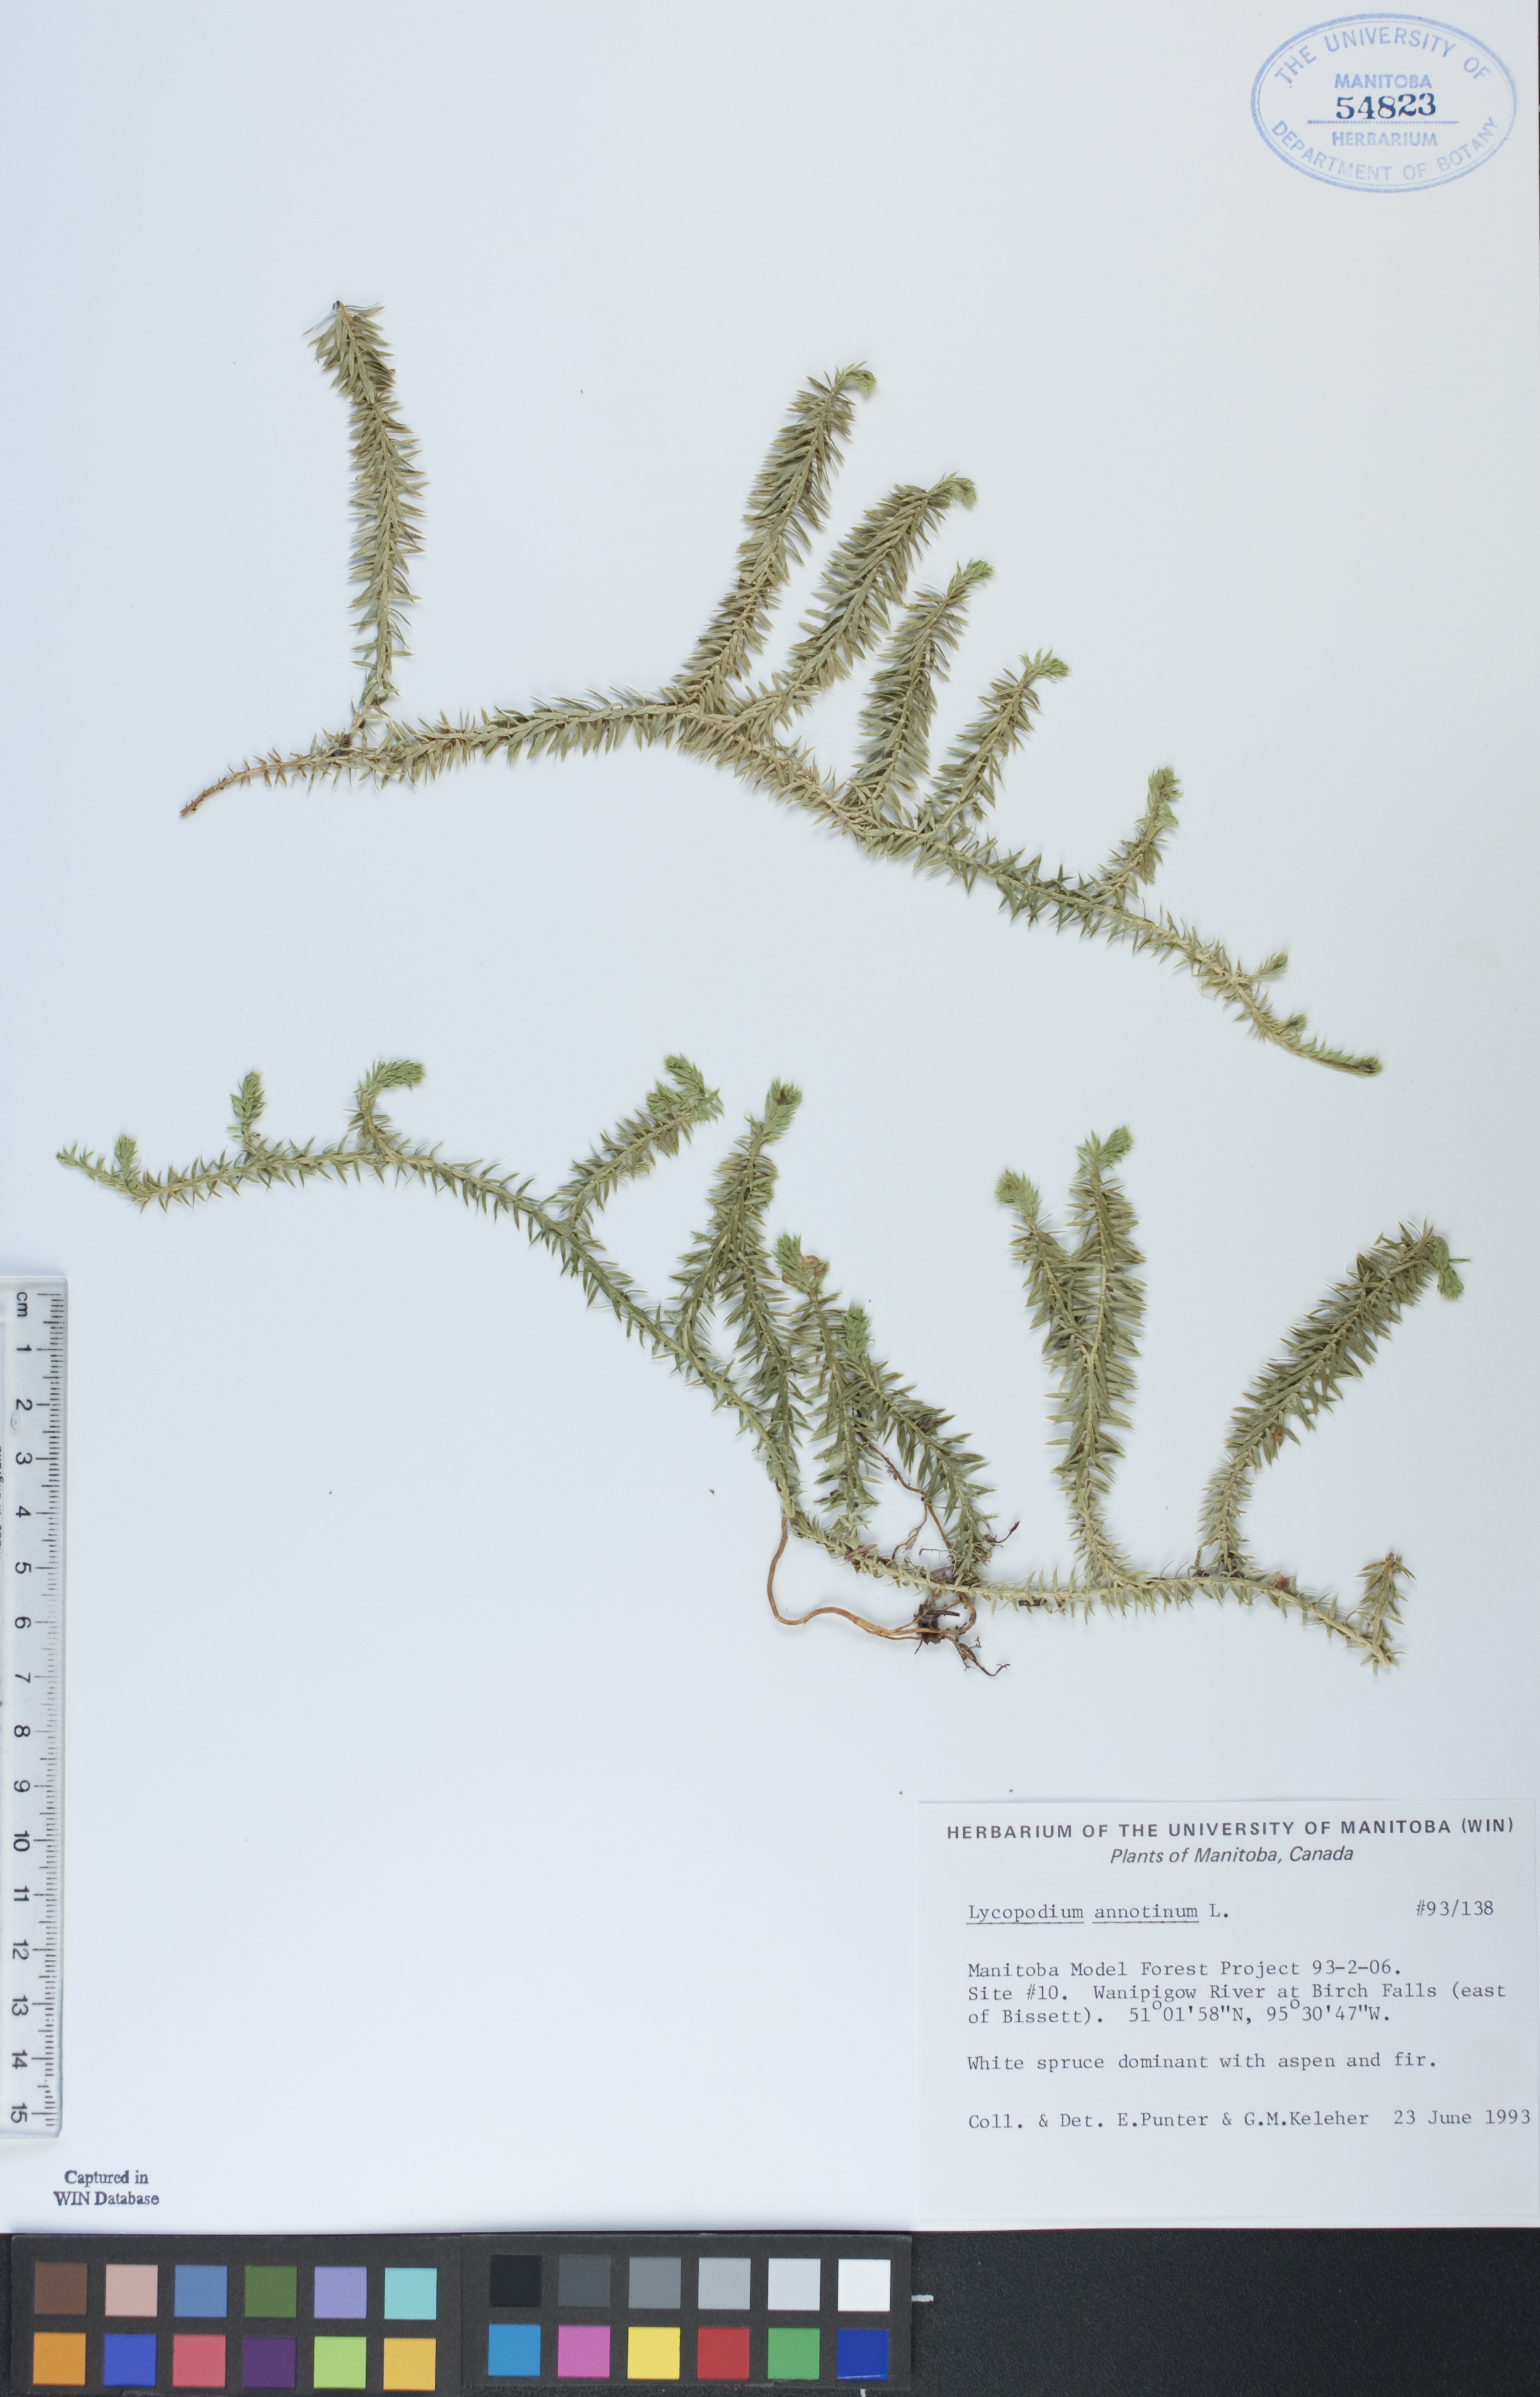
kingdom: Plantae
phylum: Tracheophyta
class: Lycopodiopsida
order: Lycopodiales
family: Lycopodiaceae
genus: Spinulum
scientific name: Spinulum annotinum
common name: Interrupted club-moss
